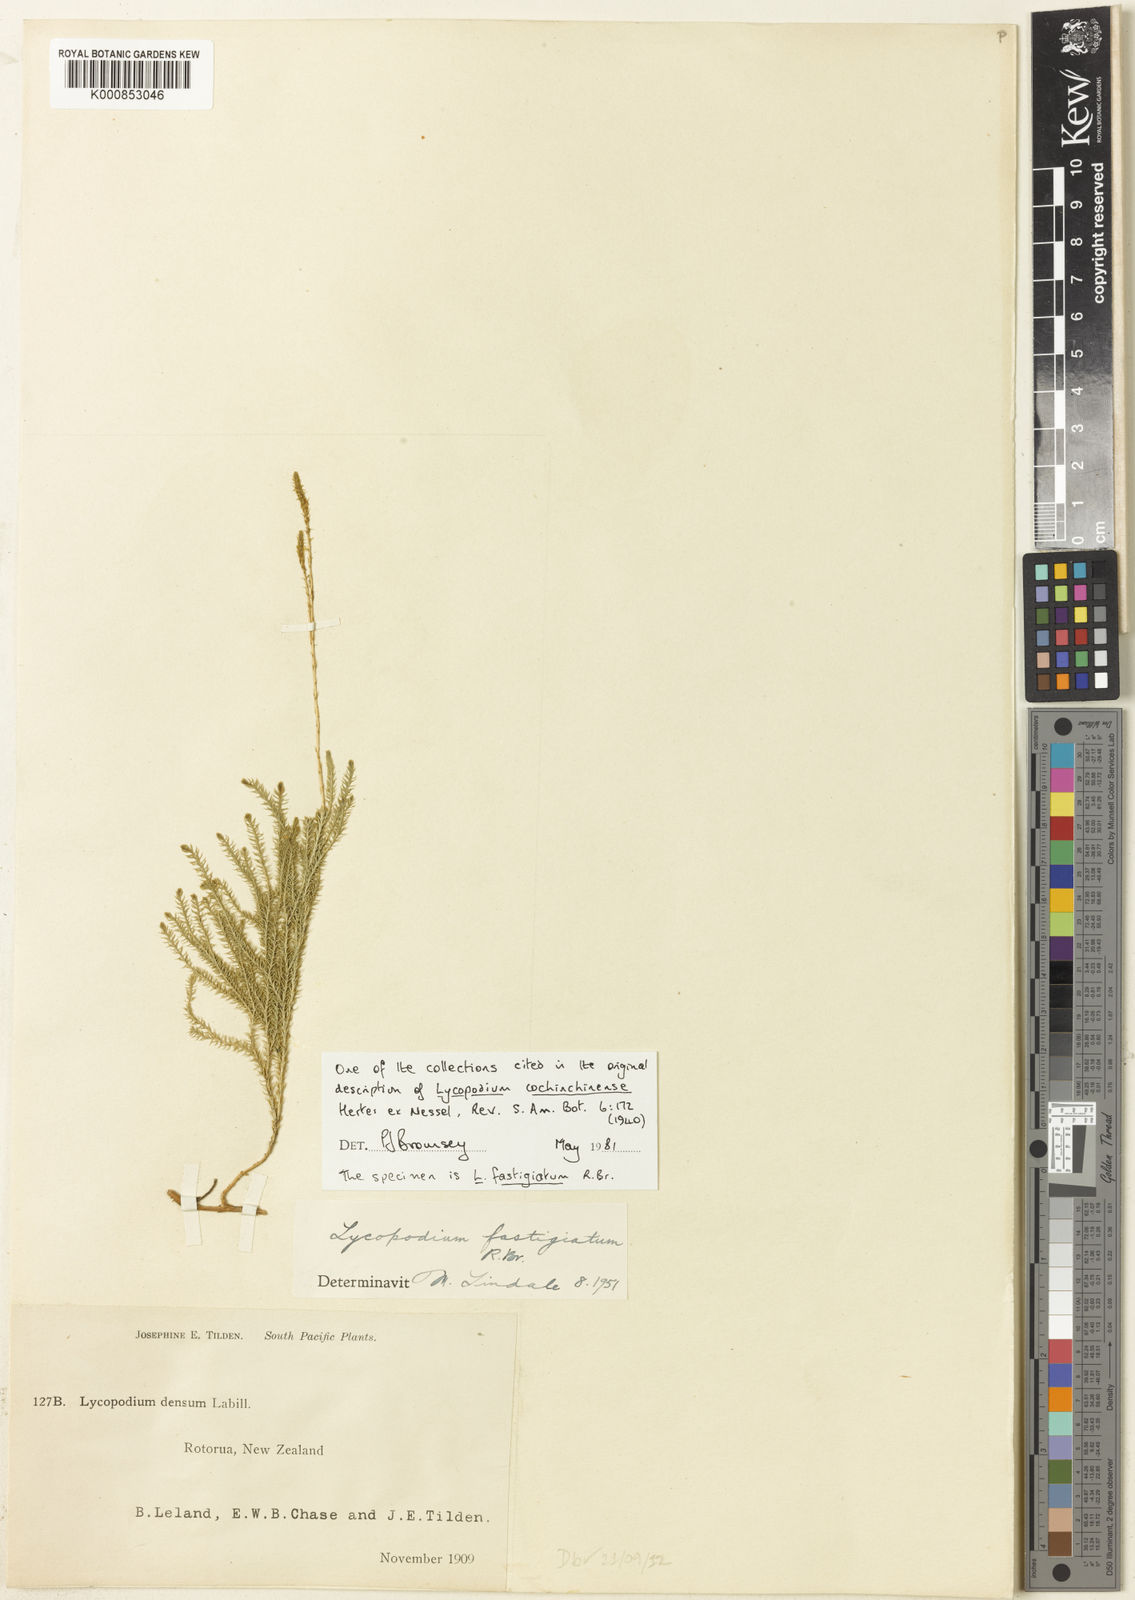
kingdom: Plantae
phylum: Tracheophyta
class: Lycopodiopsida
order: Lycopodiales
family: Lycopodiaceae
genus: Lycopodium
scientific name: Lycopodium
